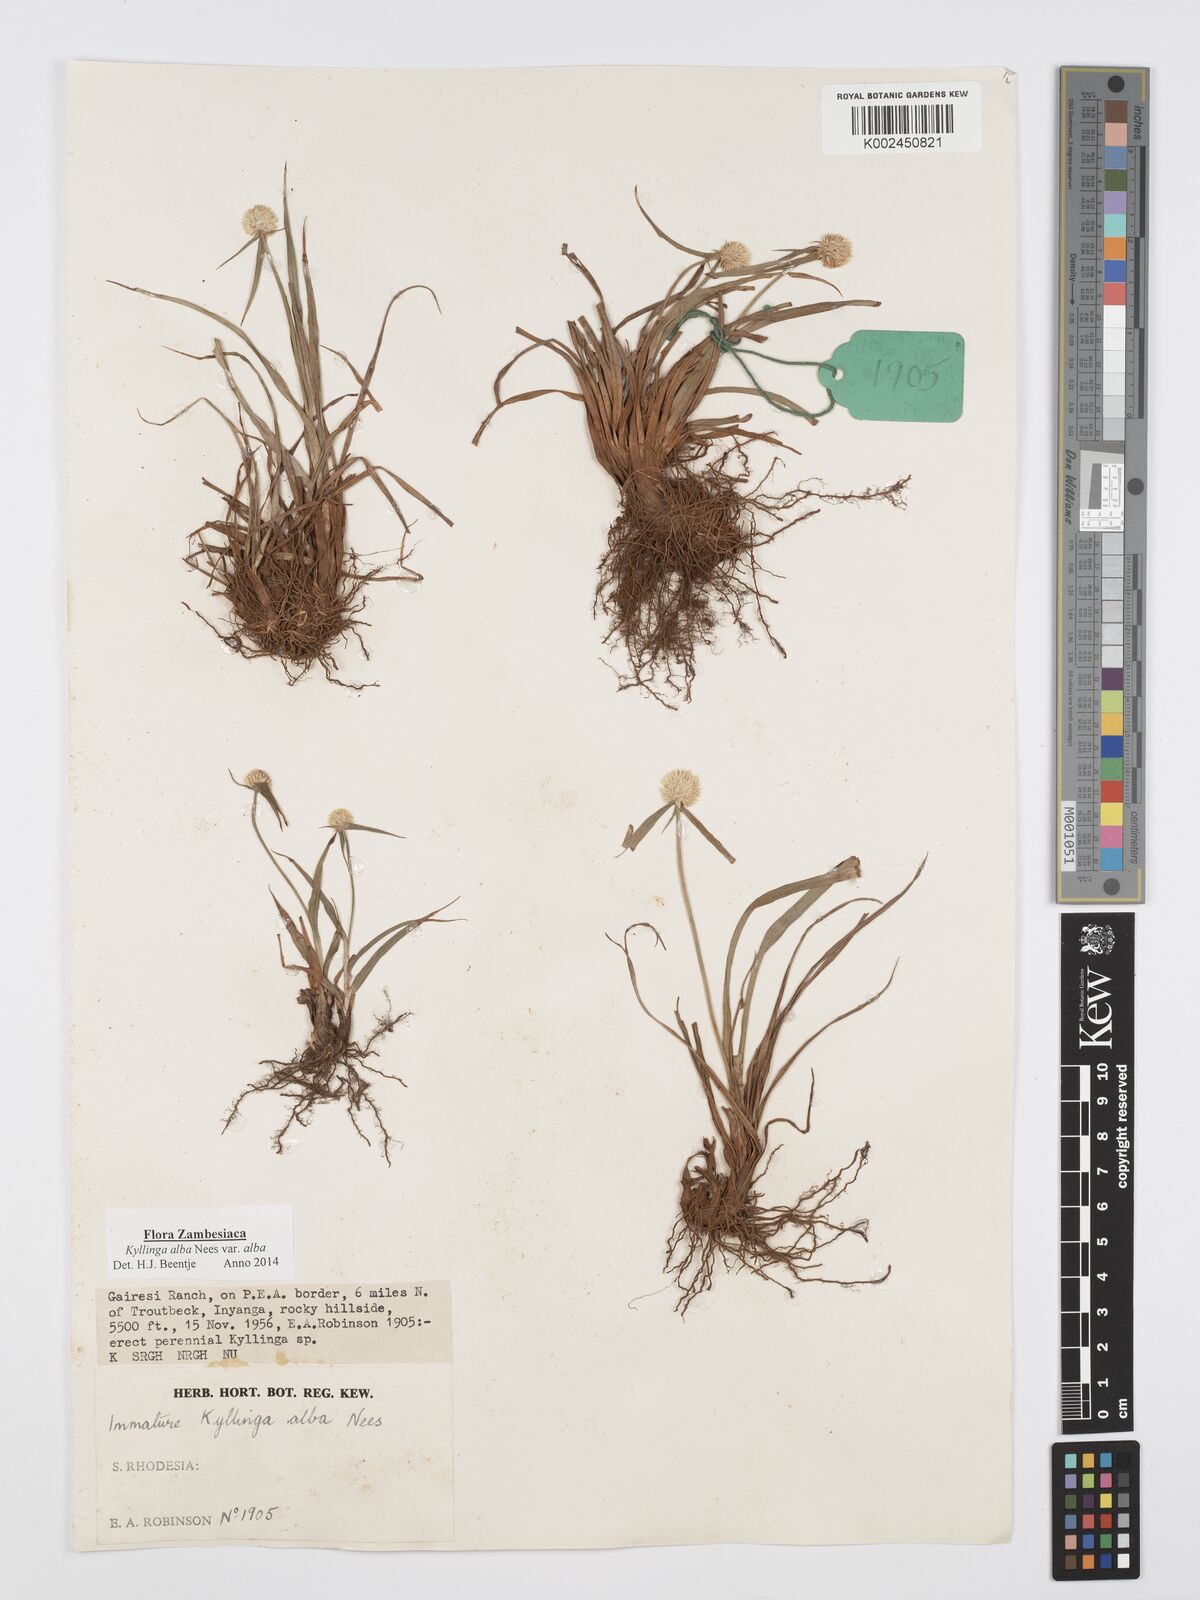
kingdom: Plantae
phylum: Tracheophyta
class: Liliopsida
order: Poales
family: Cyperaceae
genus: Cyperus
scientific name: Cyperus
